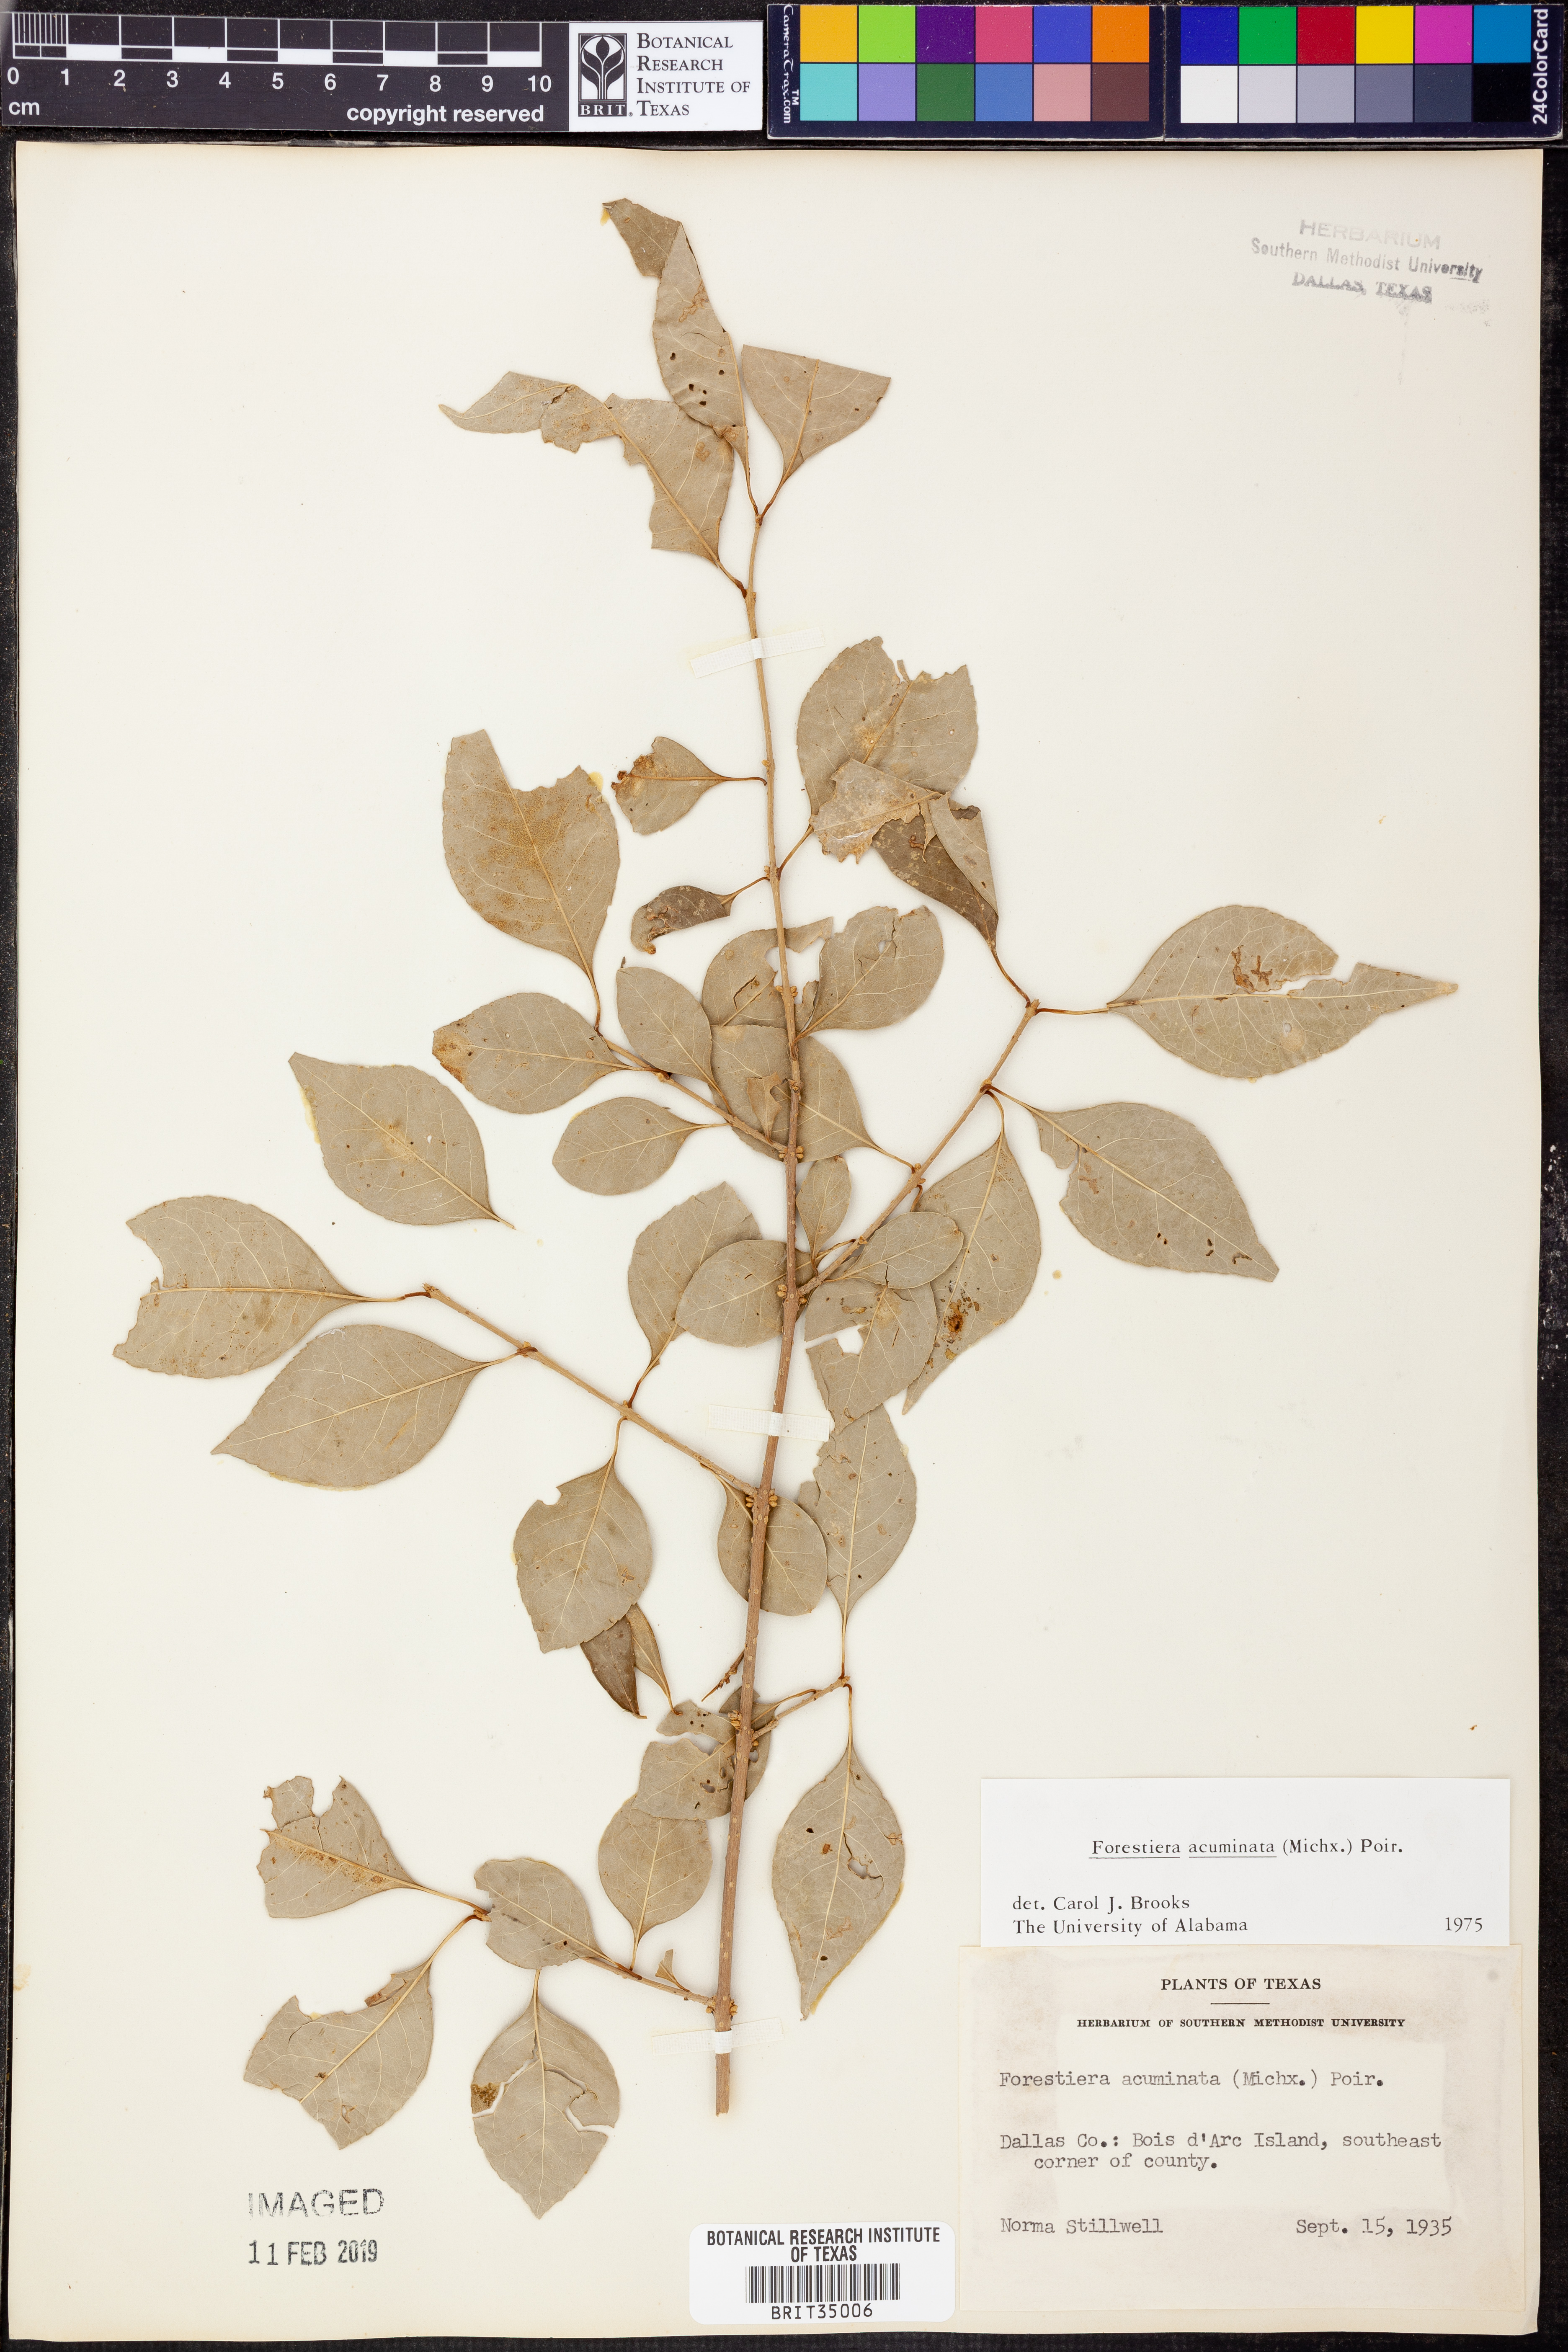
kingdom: Plantae
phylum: Tracheophyta
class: Magnoliopsida
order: Lamiales
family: Oleaceae
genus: Forestiera
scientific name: Forestiera acuminata
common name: Swamp-privet
